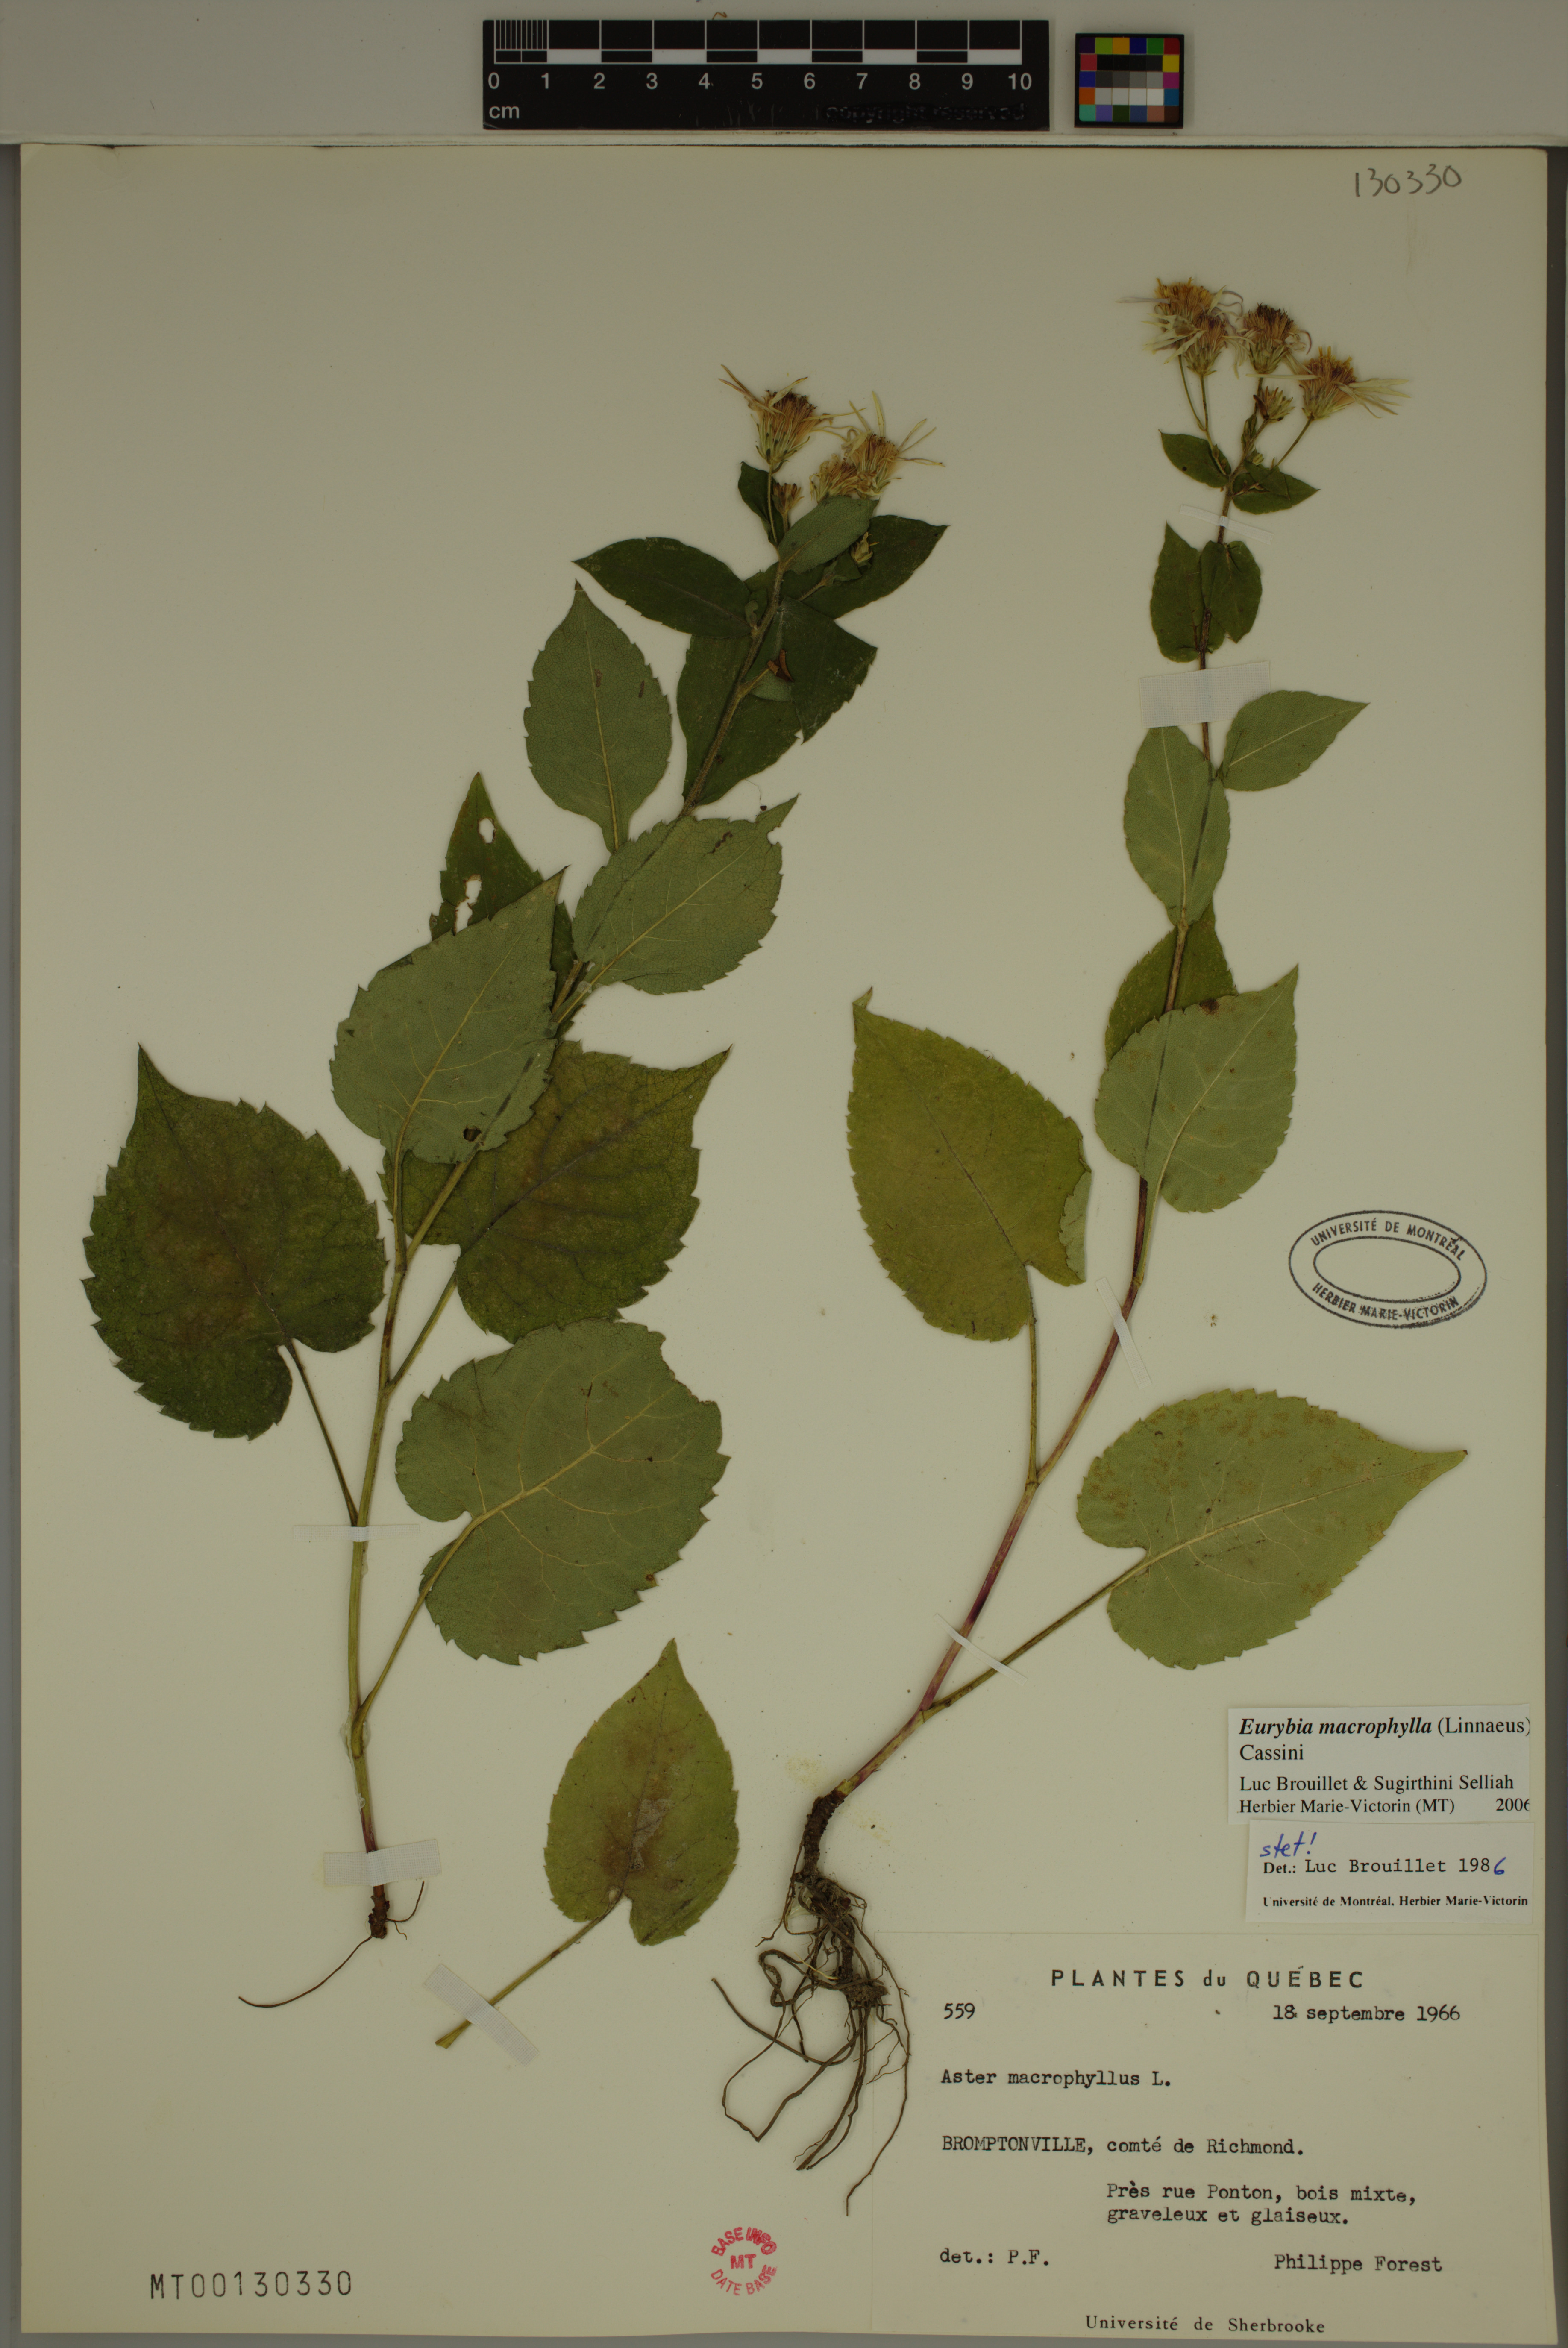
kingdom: Plantae
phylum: Tracheophyta
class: Magnoliopsida
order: Asterales
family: Asteraceae
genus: Eurybia
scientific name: Eurybia macrophylla
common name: Big-leaved aster
